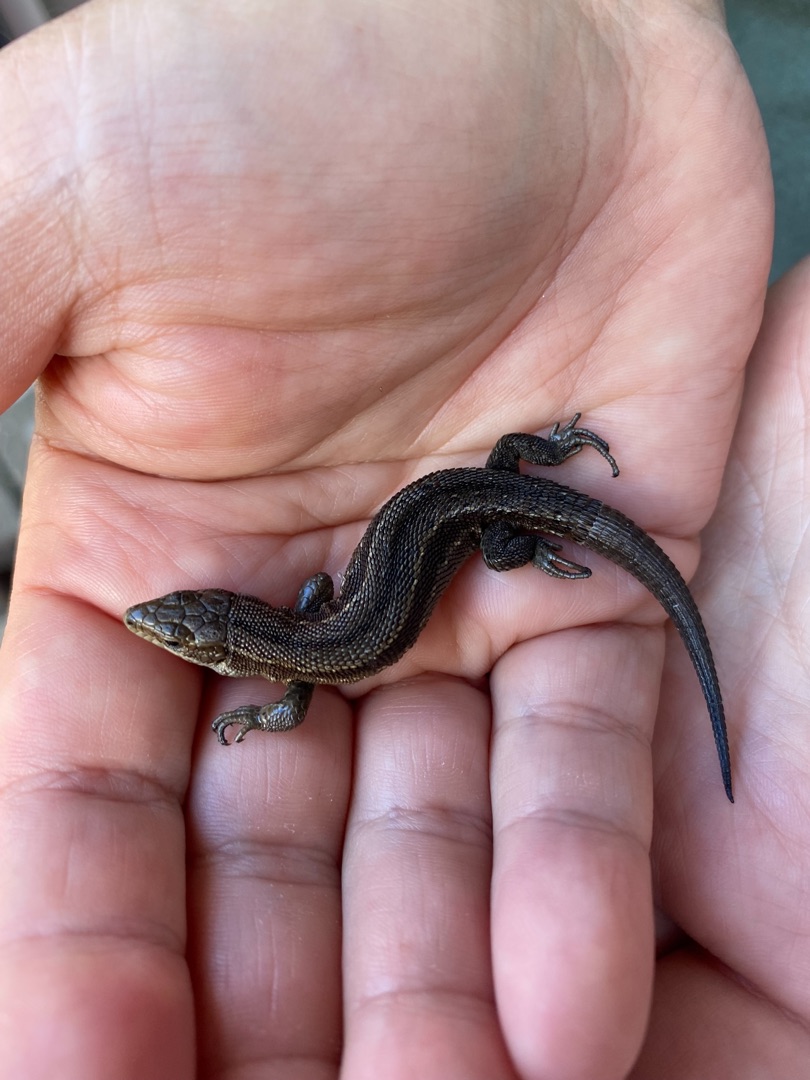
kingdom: Animalia
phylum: Chordata
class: Squamata
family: Lacertidae
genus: Zootoca
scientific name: Zootoca vivipara
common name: Skovfirben
